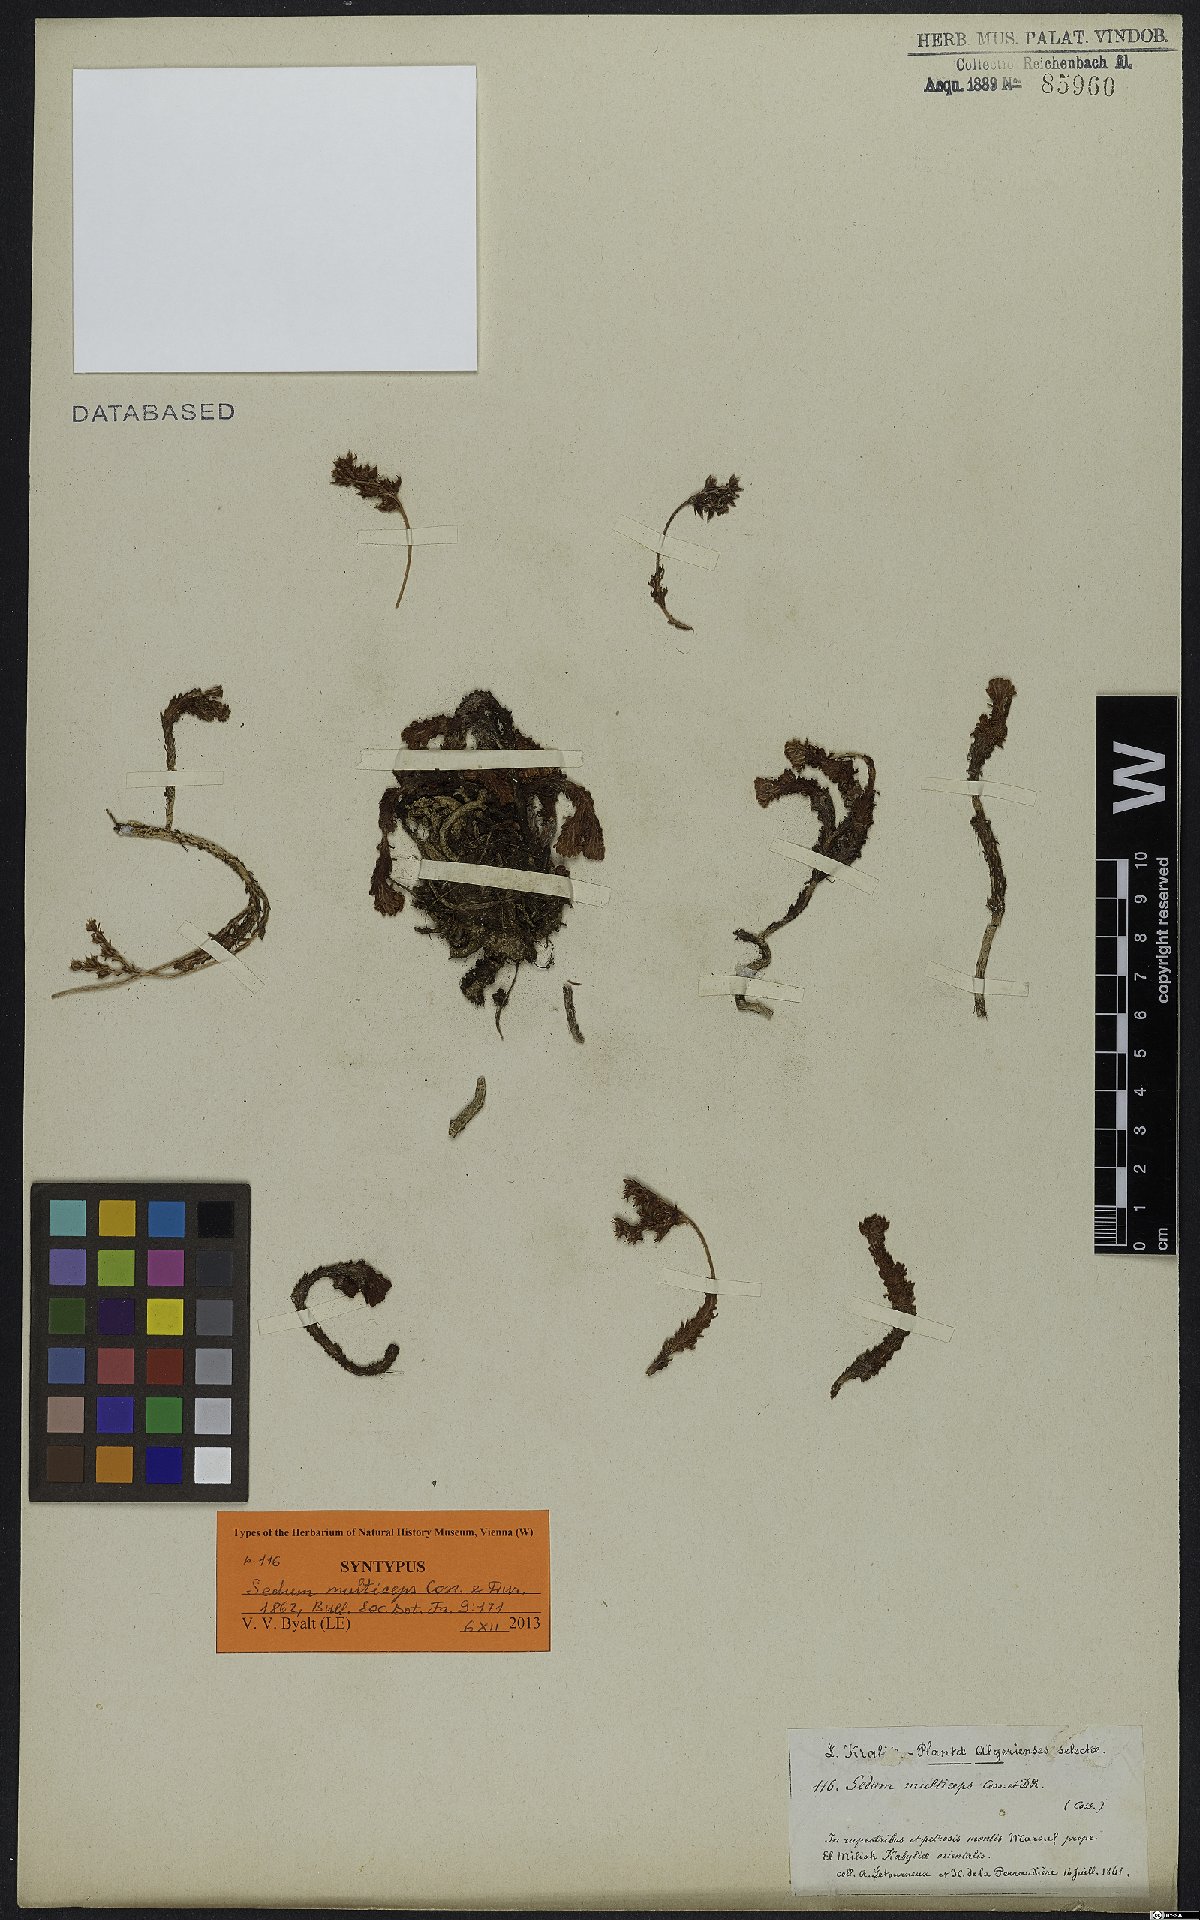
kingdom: Plantae
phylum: Tracheophyta
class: Magnoliopsida
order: Saxifragales
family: Crassulaceae
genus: Sedum
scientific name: Sedum multiceps
